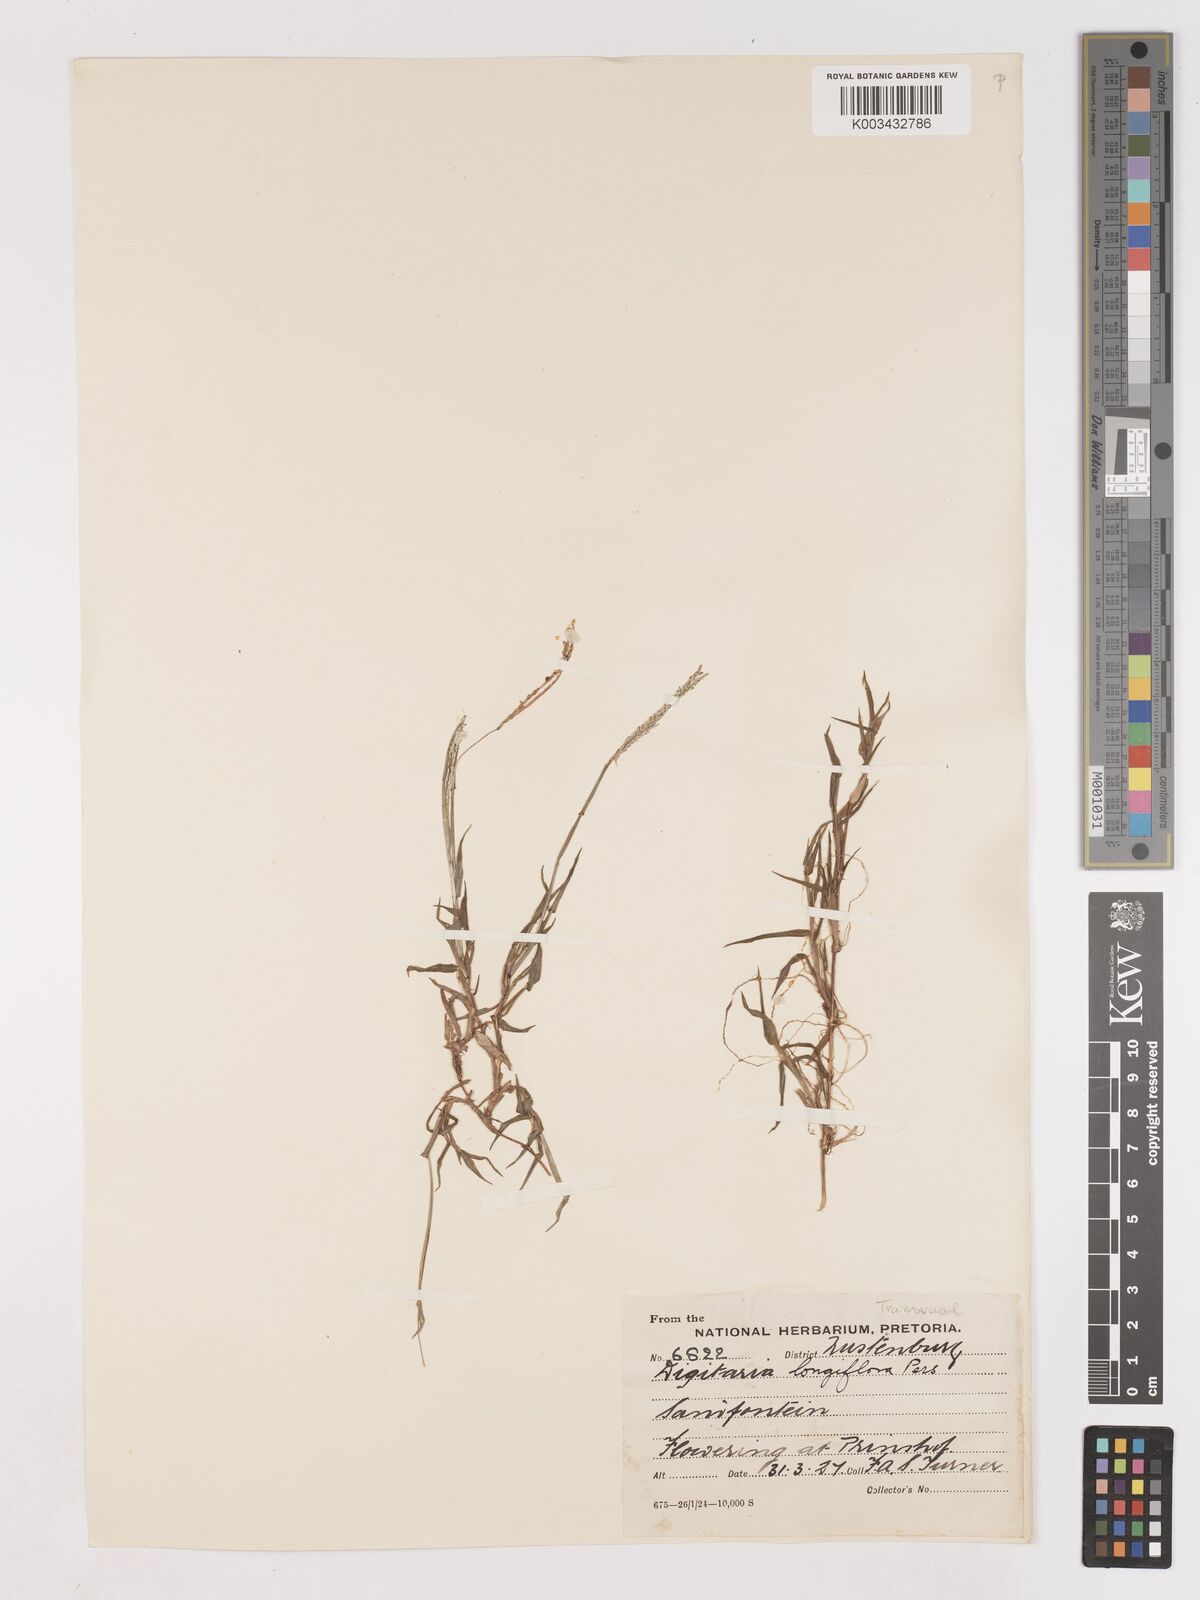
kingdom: Plantae
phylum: Tracheophyta
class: Liliopsida
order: Poales
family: Poaceae
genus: Digitaria
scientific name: Digitaria longiflora
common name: Wire crabgrass
